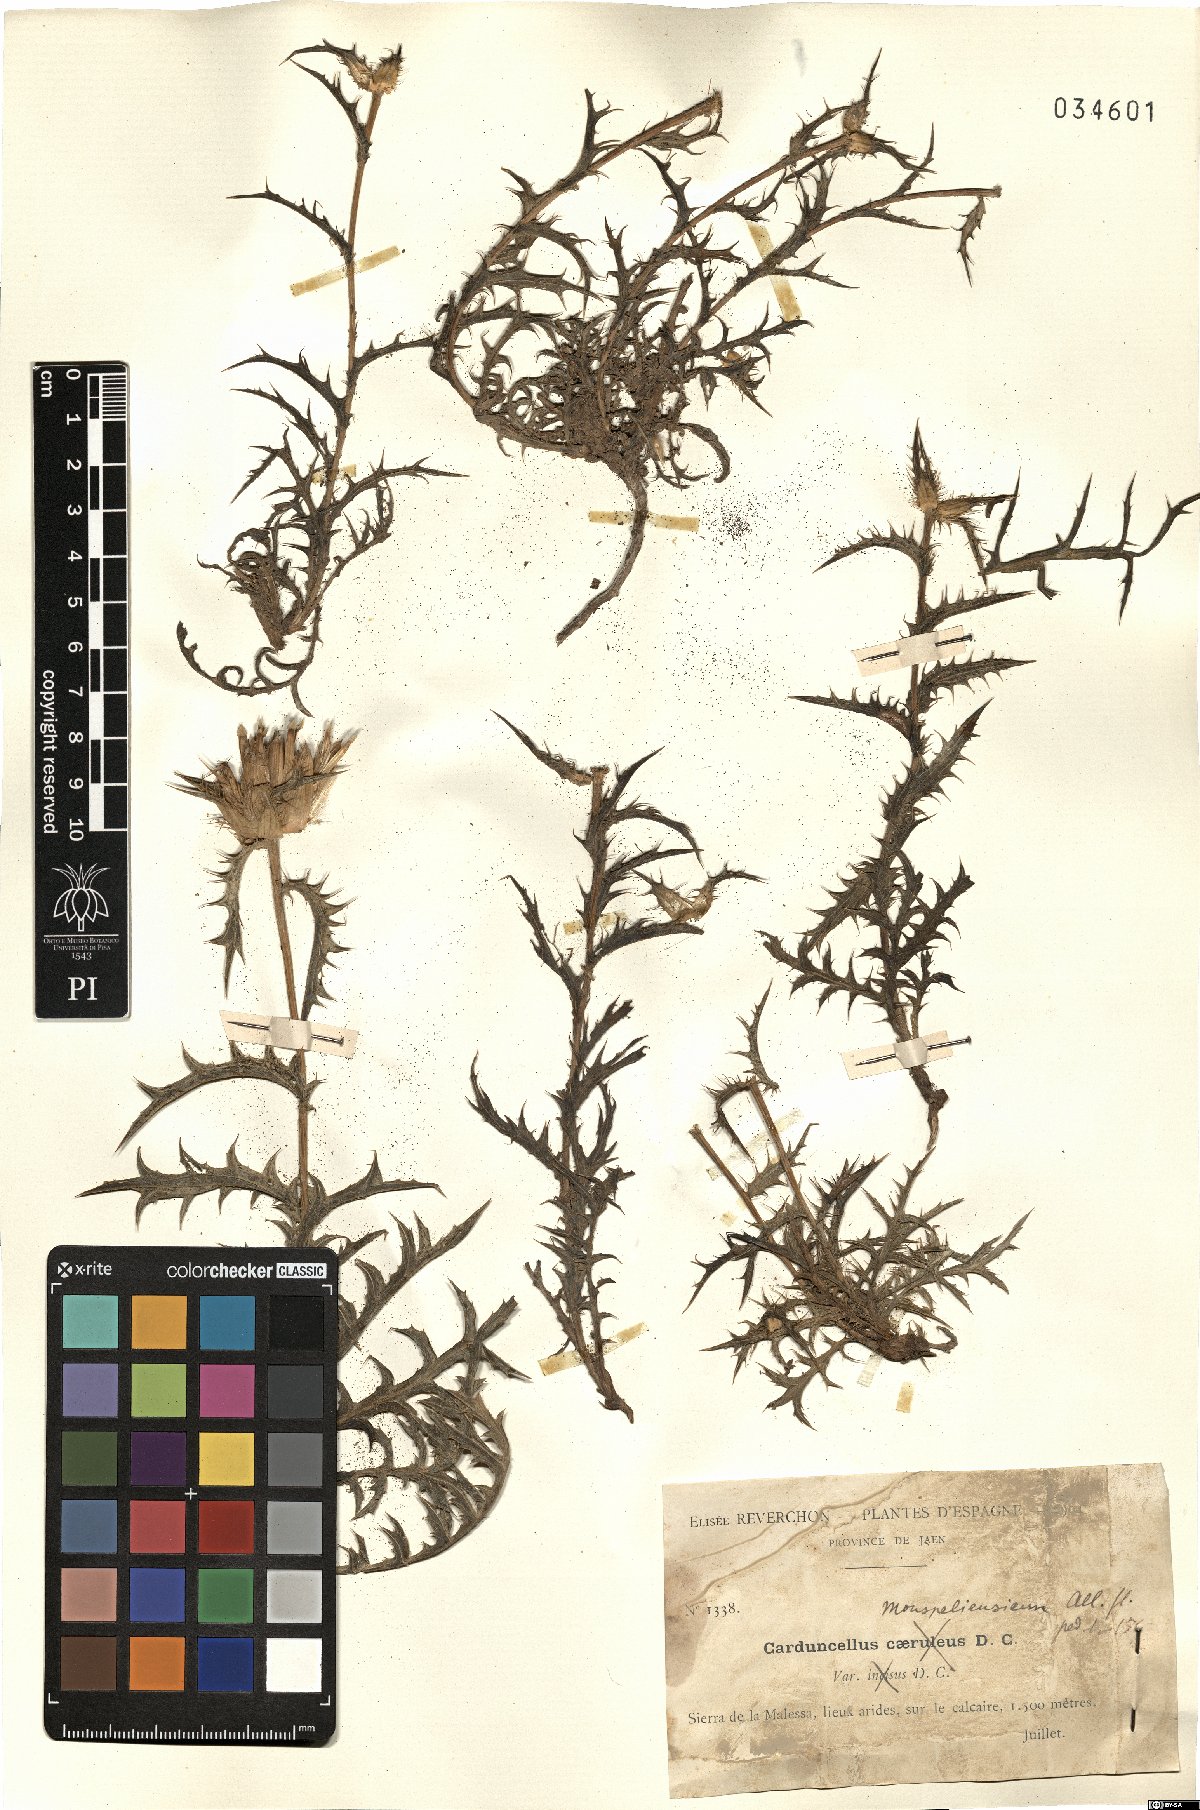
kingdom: Plantae
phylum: Tracheophyta
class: Magnoliopsida
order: Asterales
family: Asteraceae
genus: Carduncellus
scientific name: Carduncellus monspelliensium
